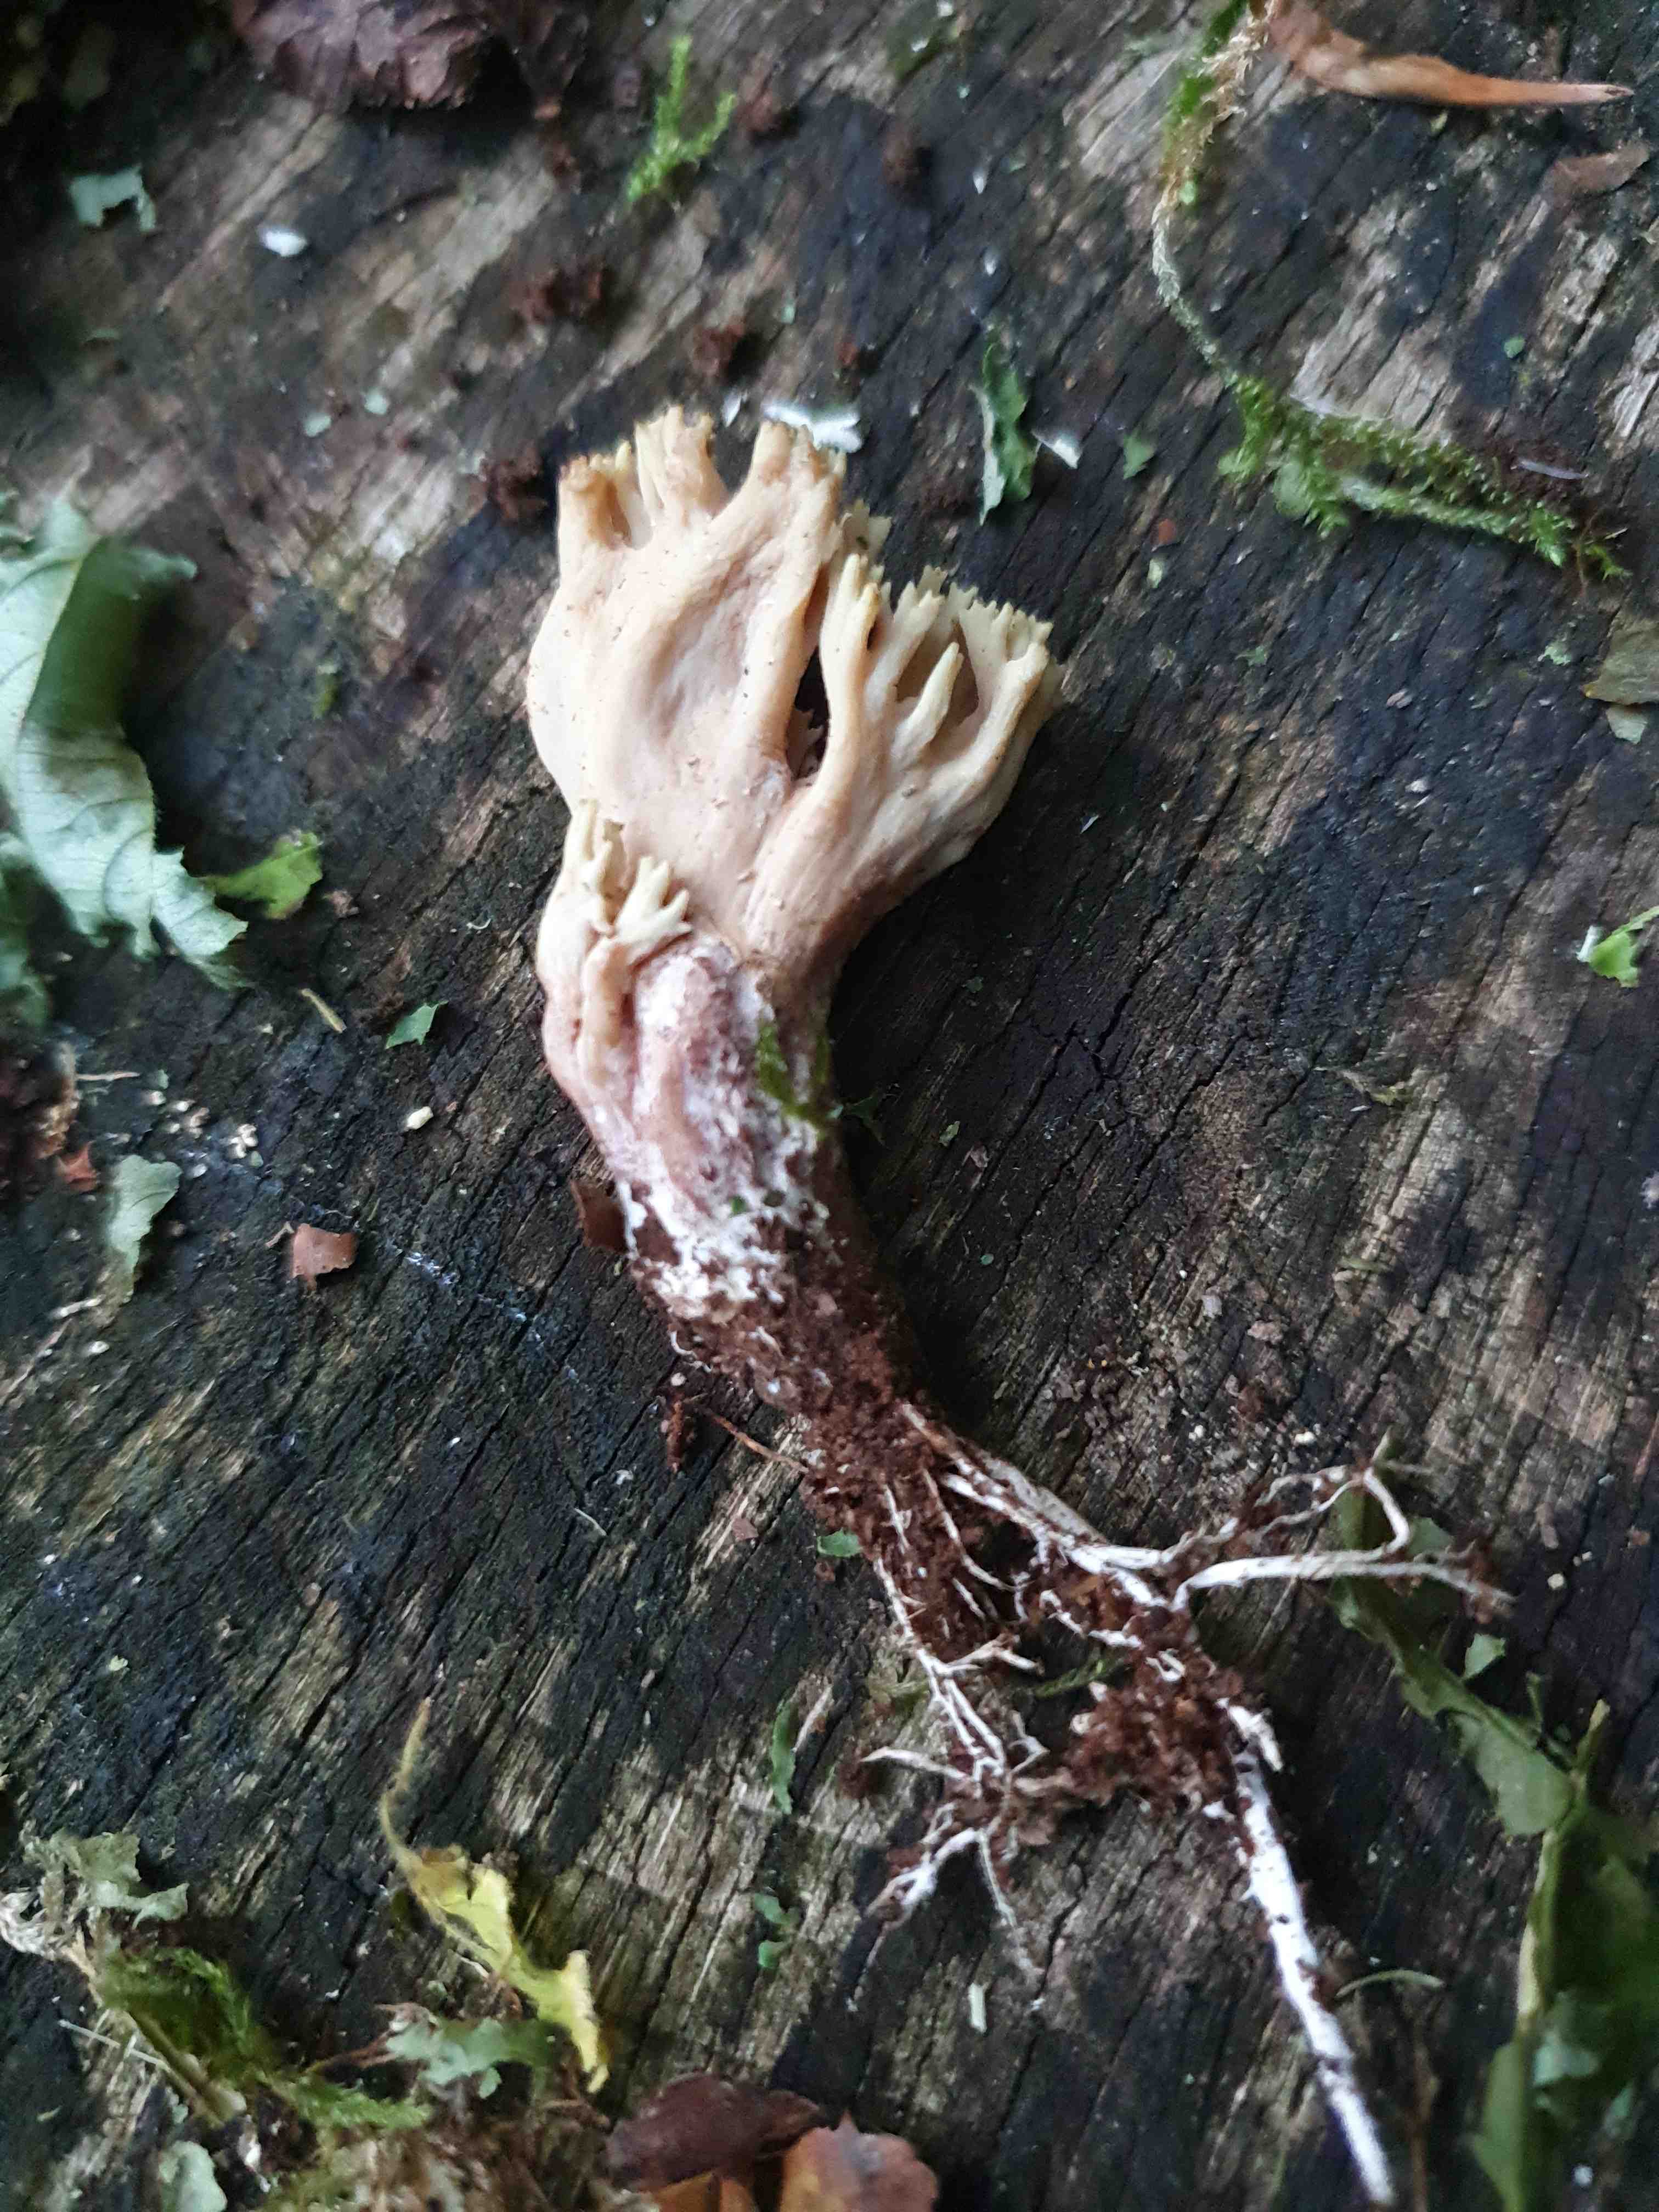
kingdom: Fungi
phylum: Basidiomycota
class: Agaricomycetes
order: Gomphales
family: Gomphaceae
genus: Ramaria
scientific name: Ramaria stricta
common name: rank koralsvamp
